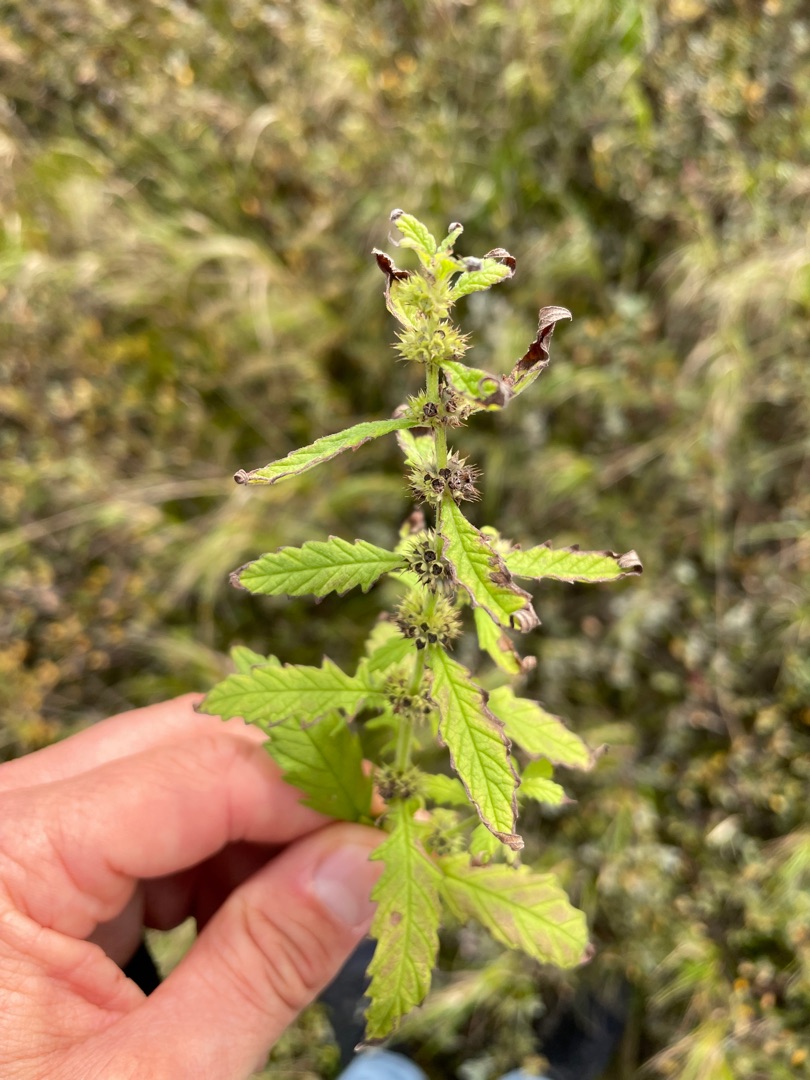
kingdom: Plantae
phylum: Tracheophyta
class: Magnoliopsida
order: Lamiales
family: Lamiaceae
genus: Lycopus
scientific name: Lycopus europaeus
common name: Sværtevæld
